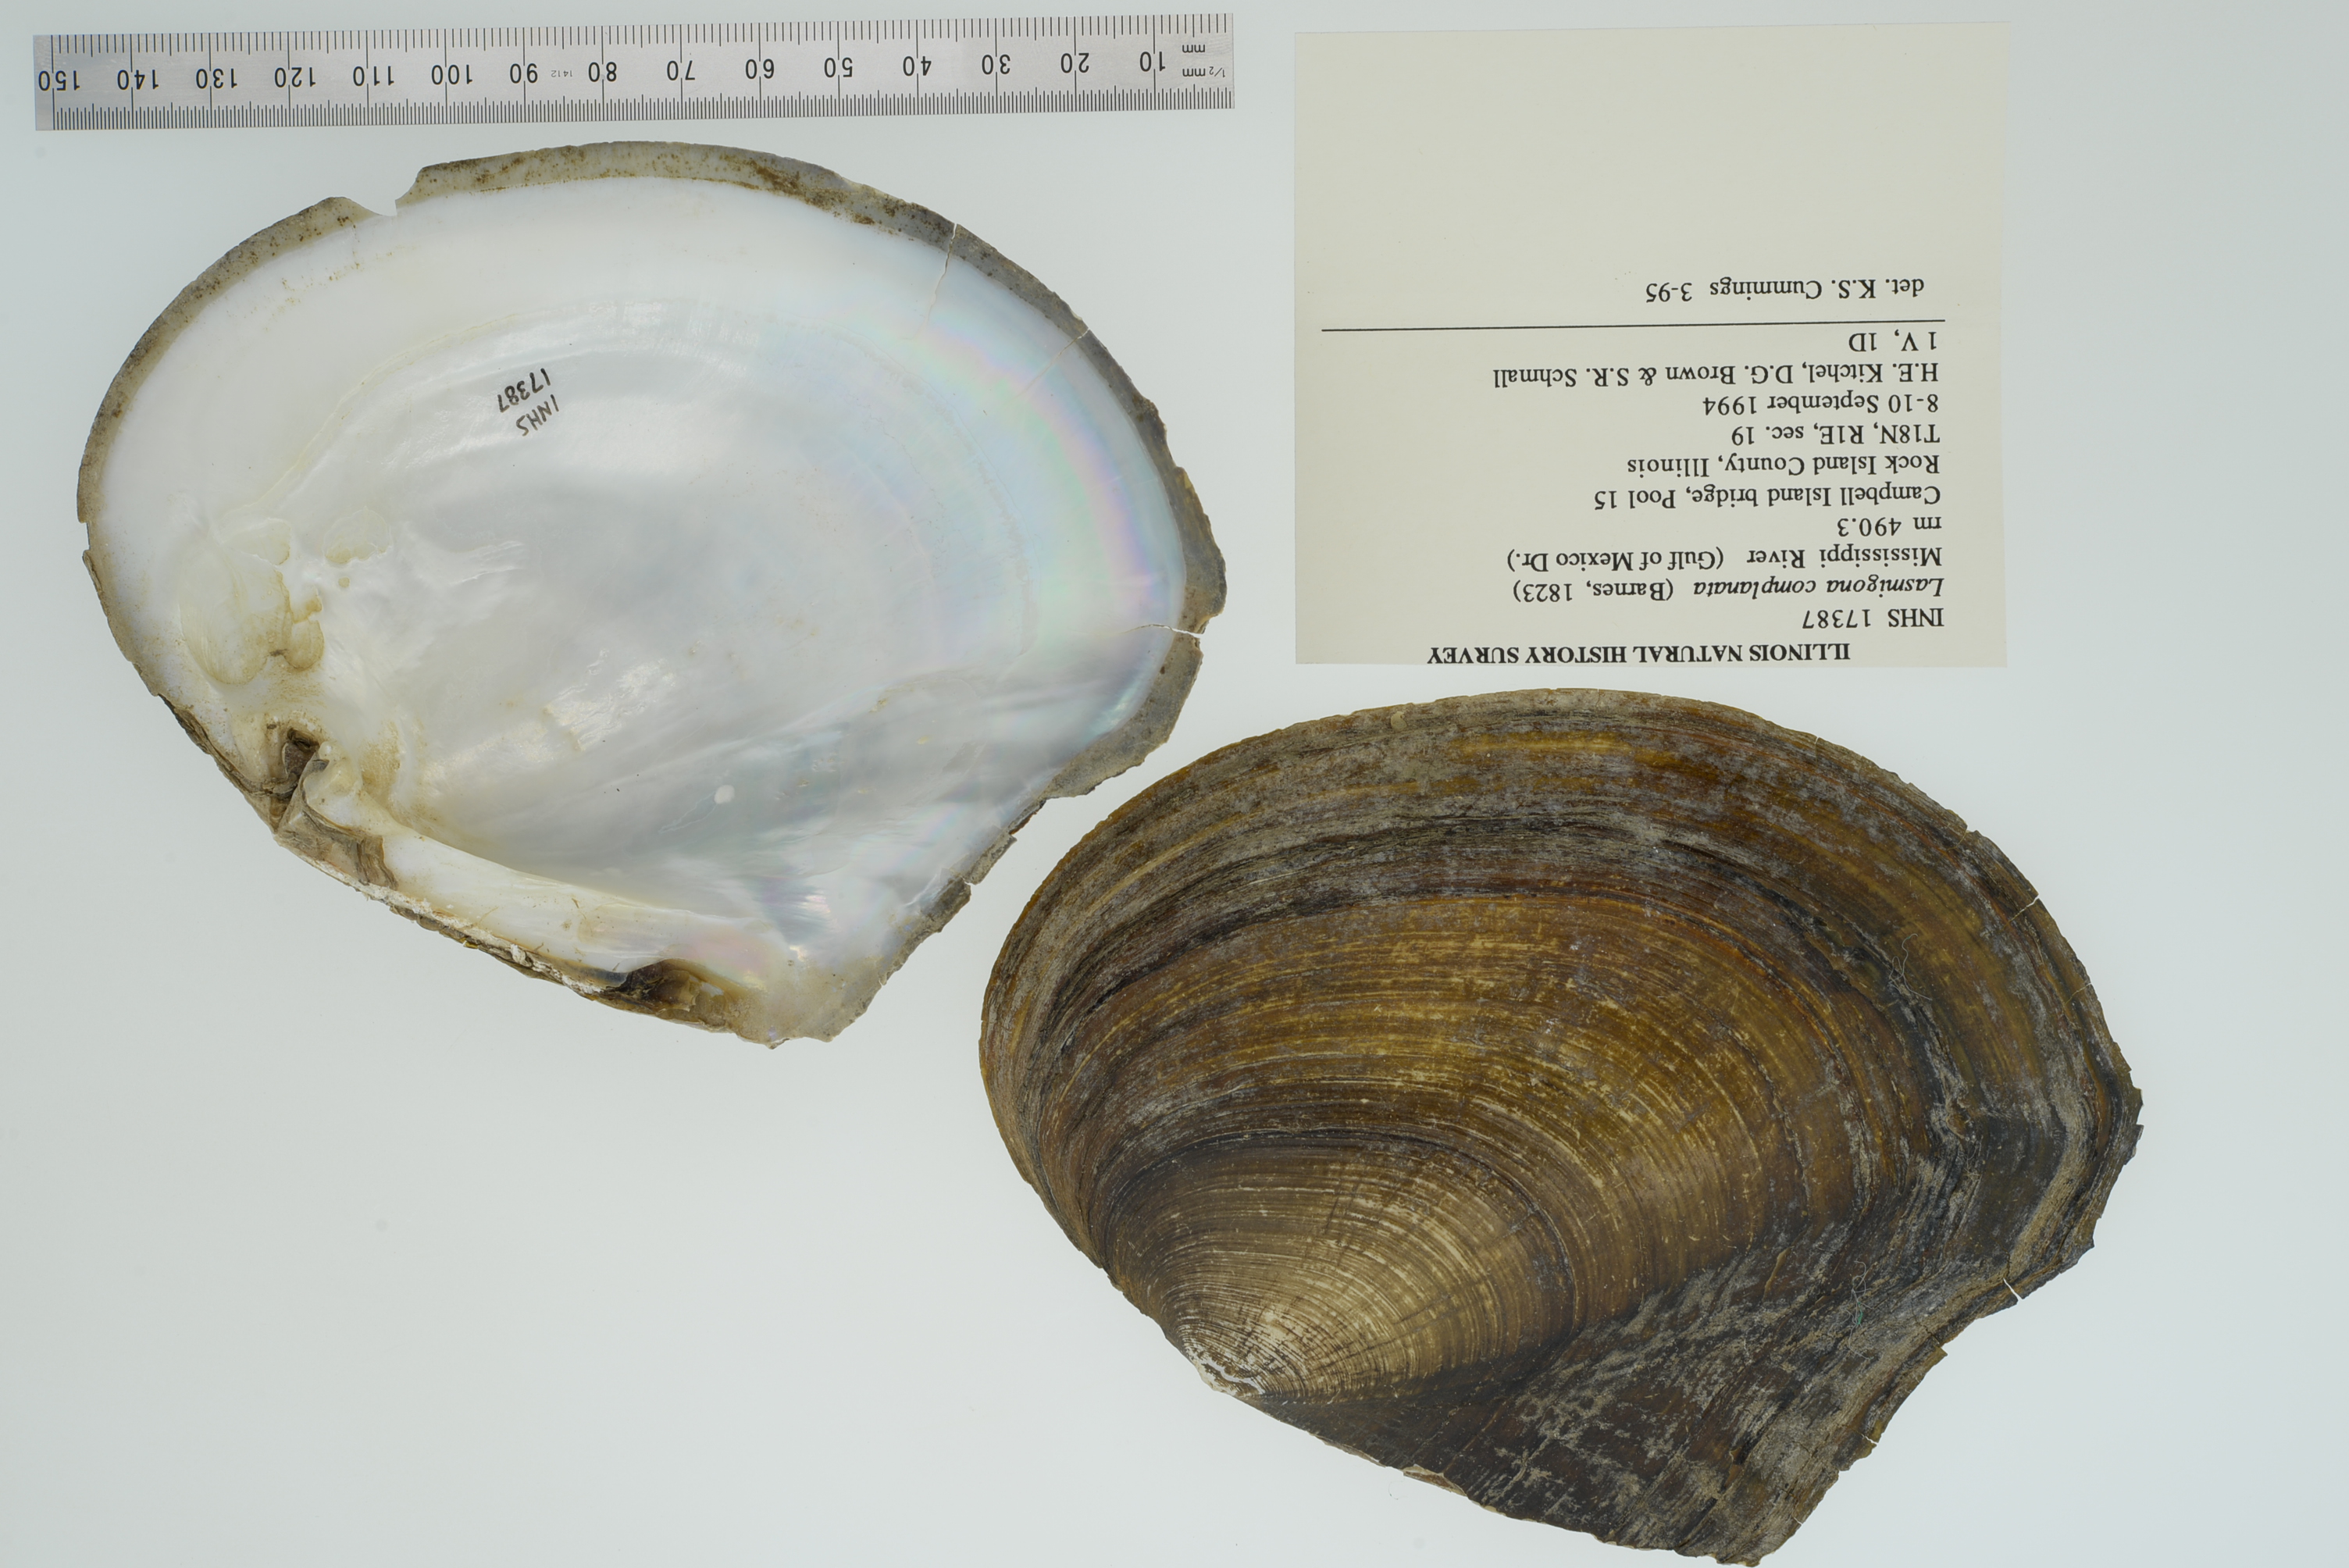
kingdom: Animalia
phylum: Mollusca
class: Bivalvia
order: Unionida
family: Unionidae
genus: Lasmigona
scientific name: Lasmigona complanata
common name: White heelsplitter
